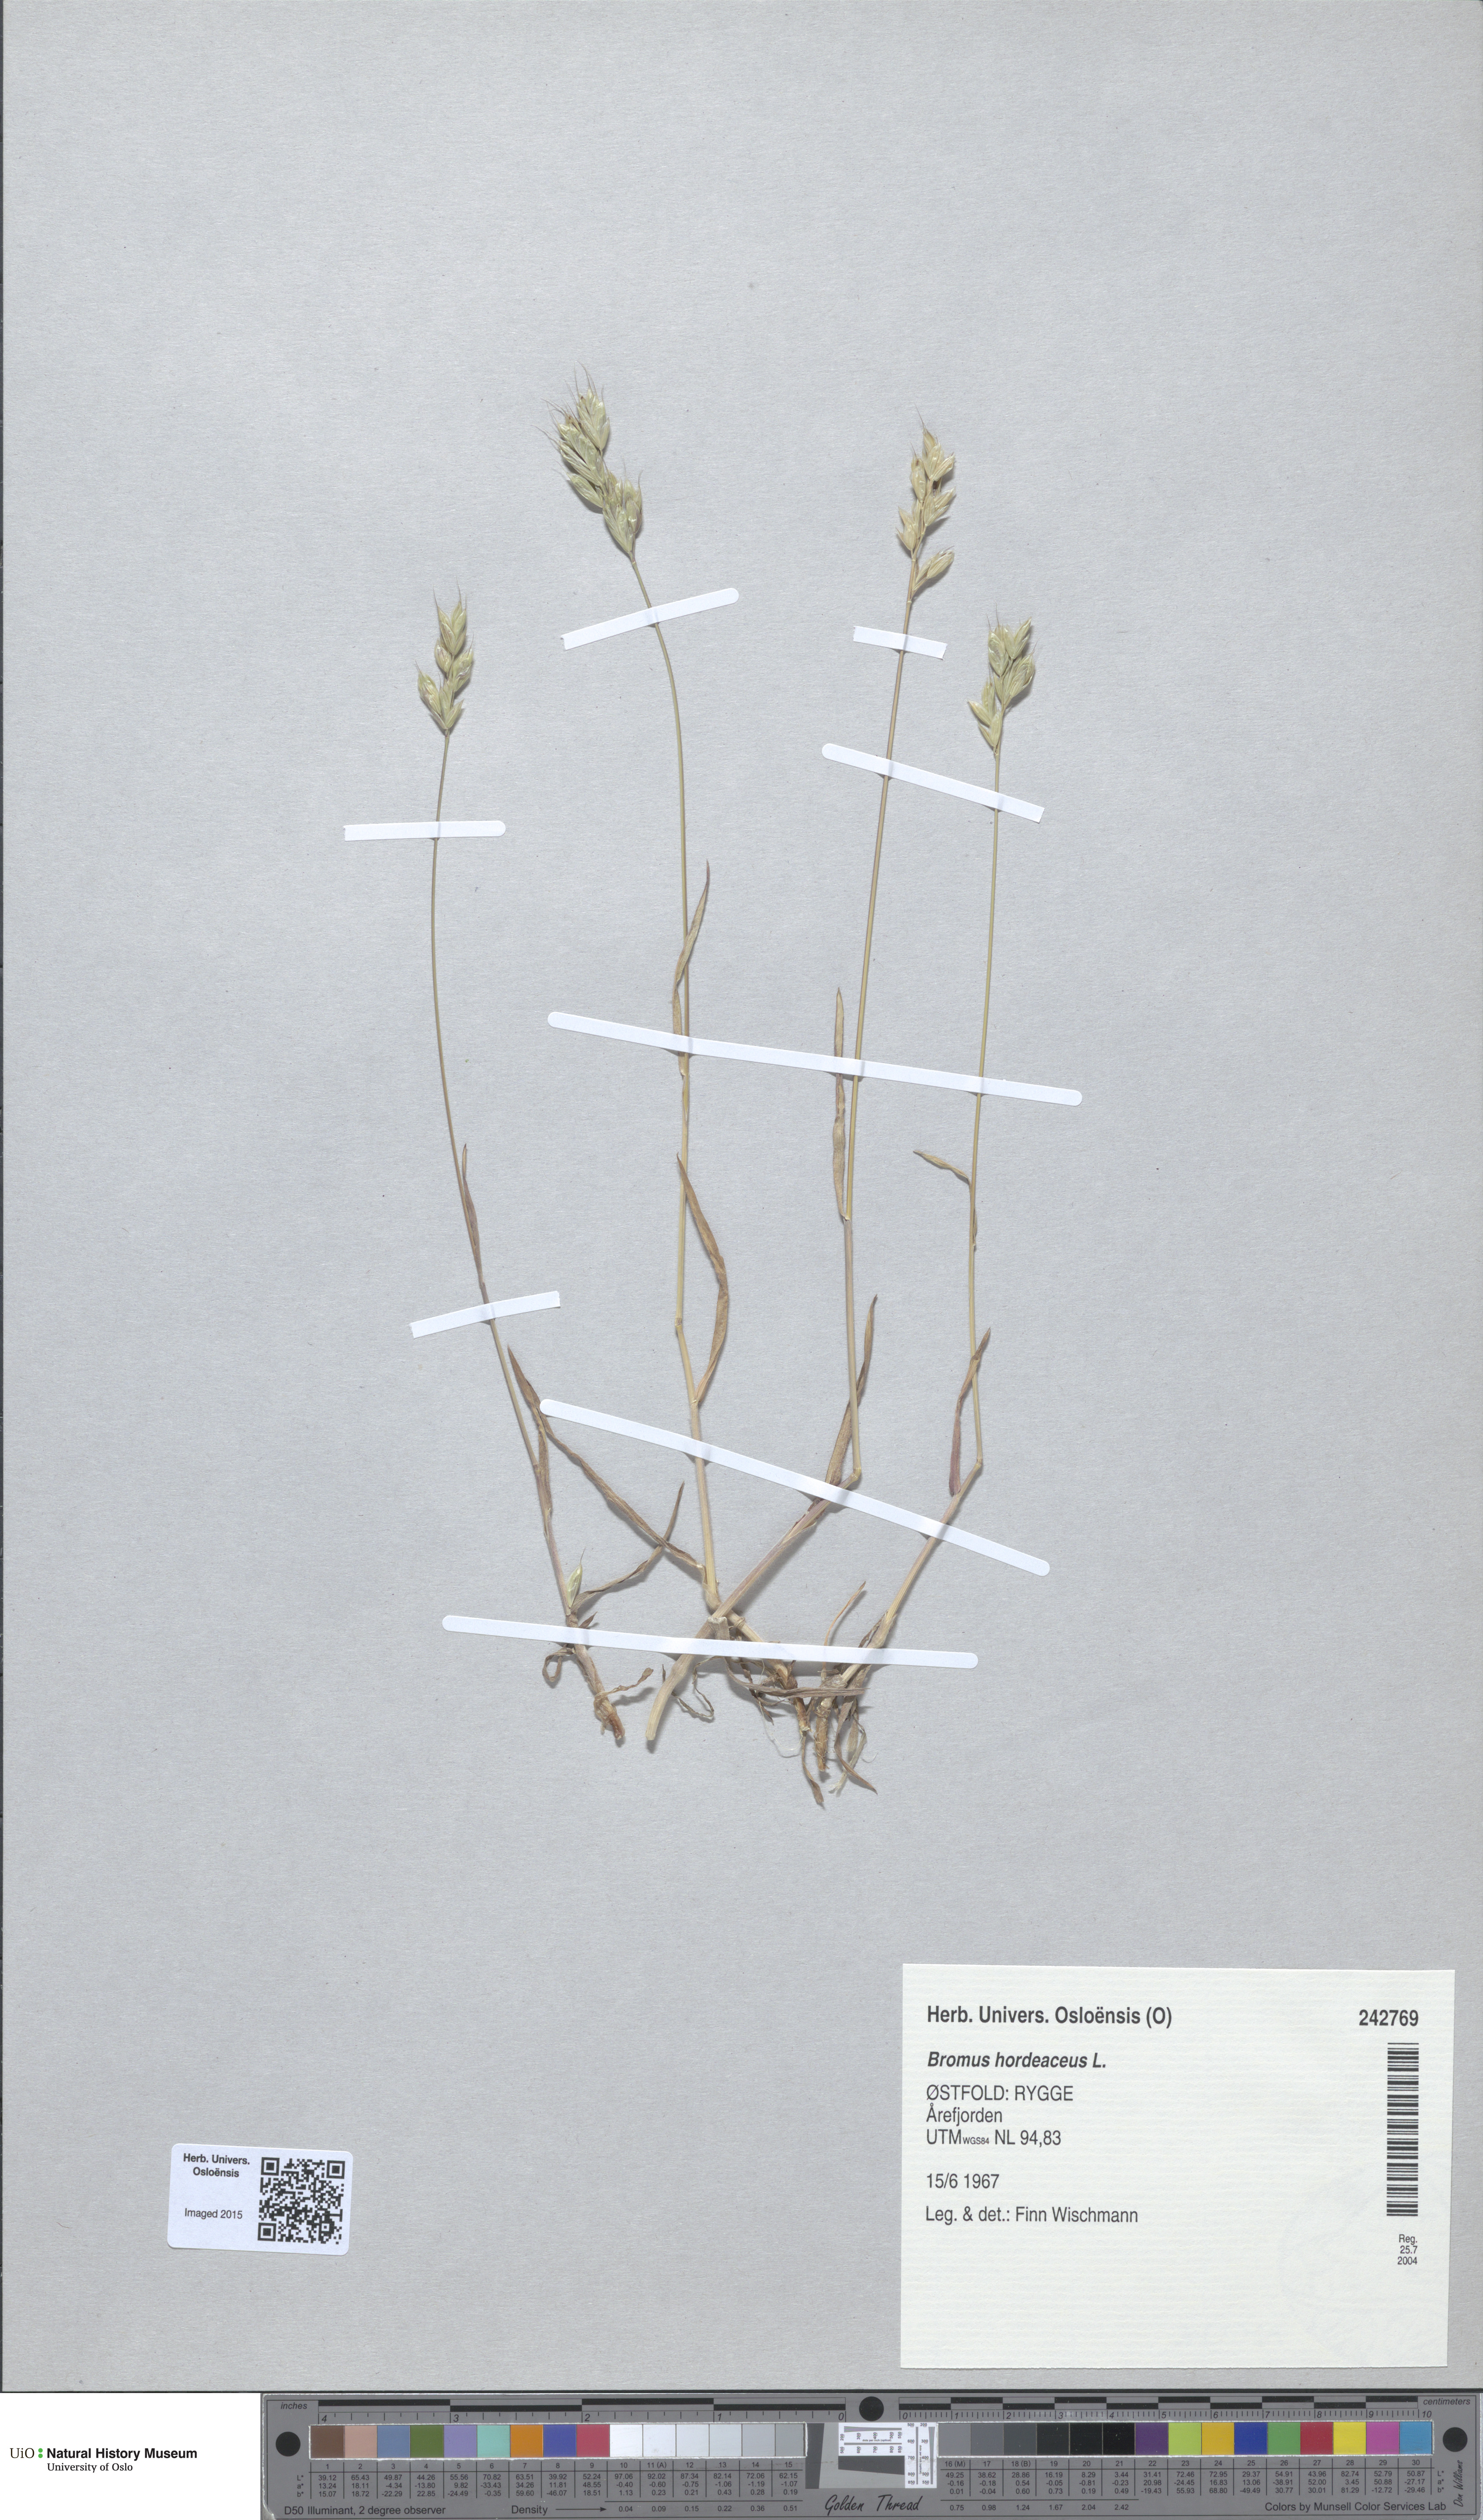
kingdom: Plantae
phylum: Tracheophyta
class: Liliopsida
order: Poales
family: Poaceae
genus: Bromus
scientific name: Bromus hordeaceus
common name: Soft brome
